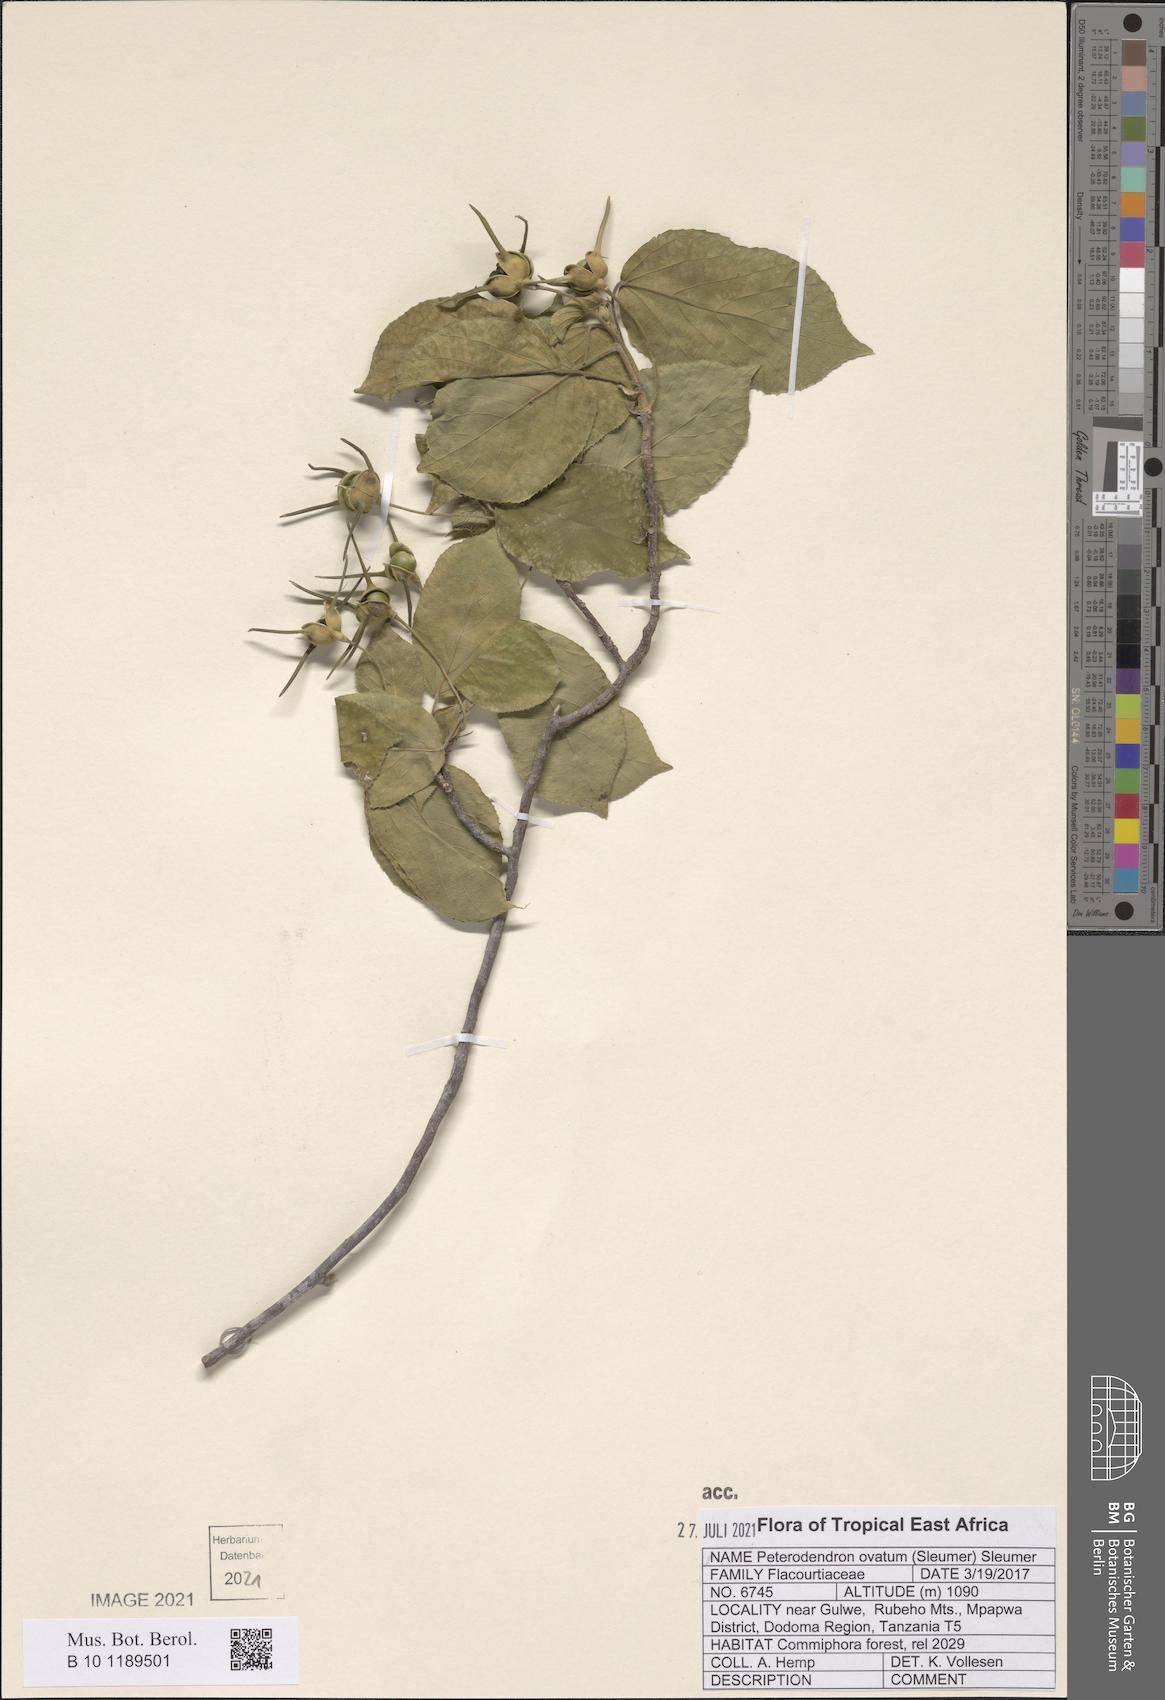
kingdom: Plantae
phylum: Tracheophyta
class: Magnoliopsida
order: Malpighiales
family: Achariaceae
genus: Peterodendron
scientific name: Peterodendron ovatum
